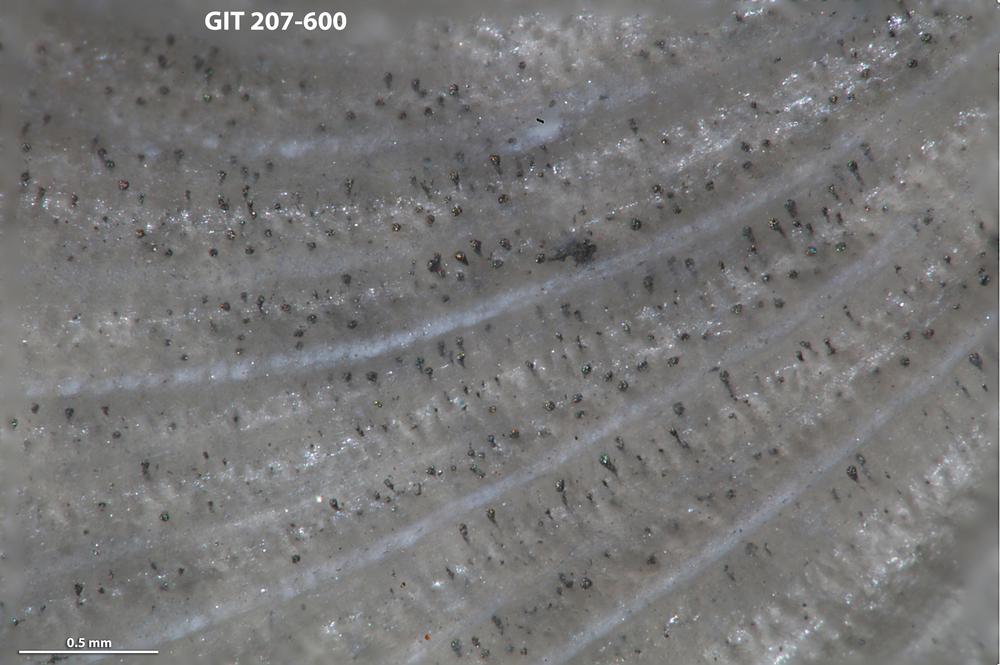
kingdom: Animalia
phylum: Brachiopoda
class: Rhynchonellata
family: Harknessellidae
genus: Horderleyella
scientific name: Horderleyella Dalmanella kegelensis
